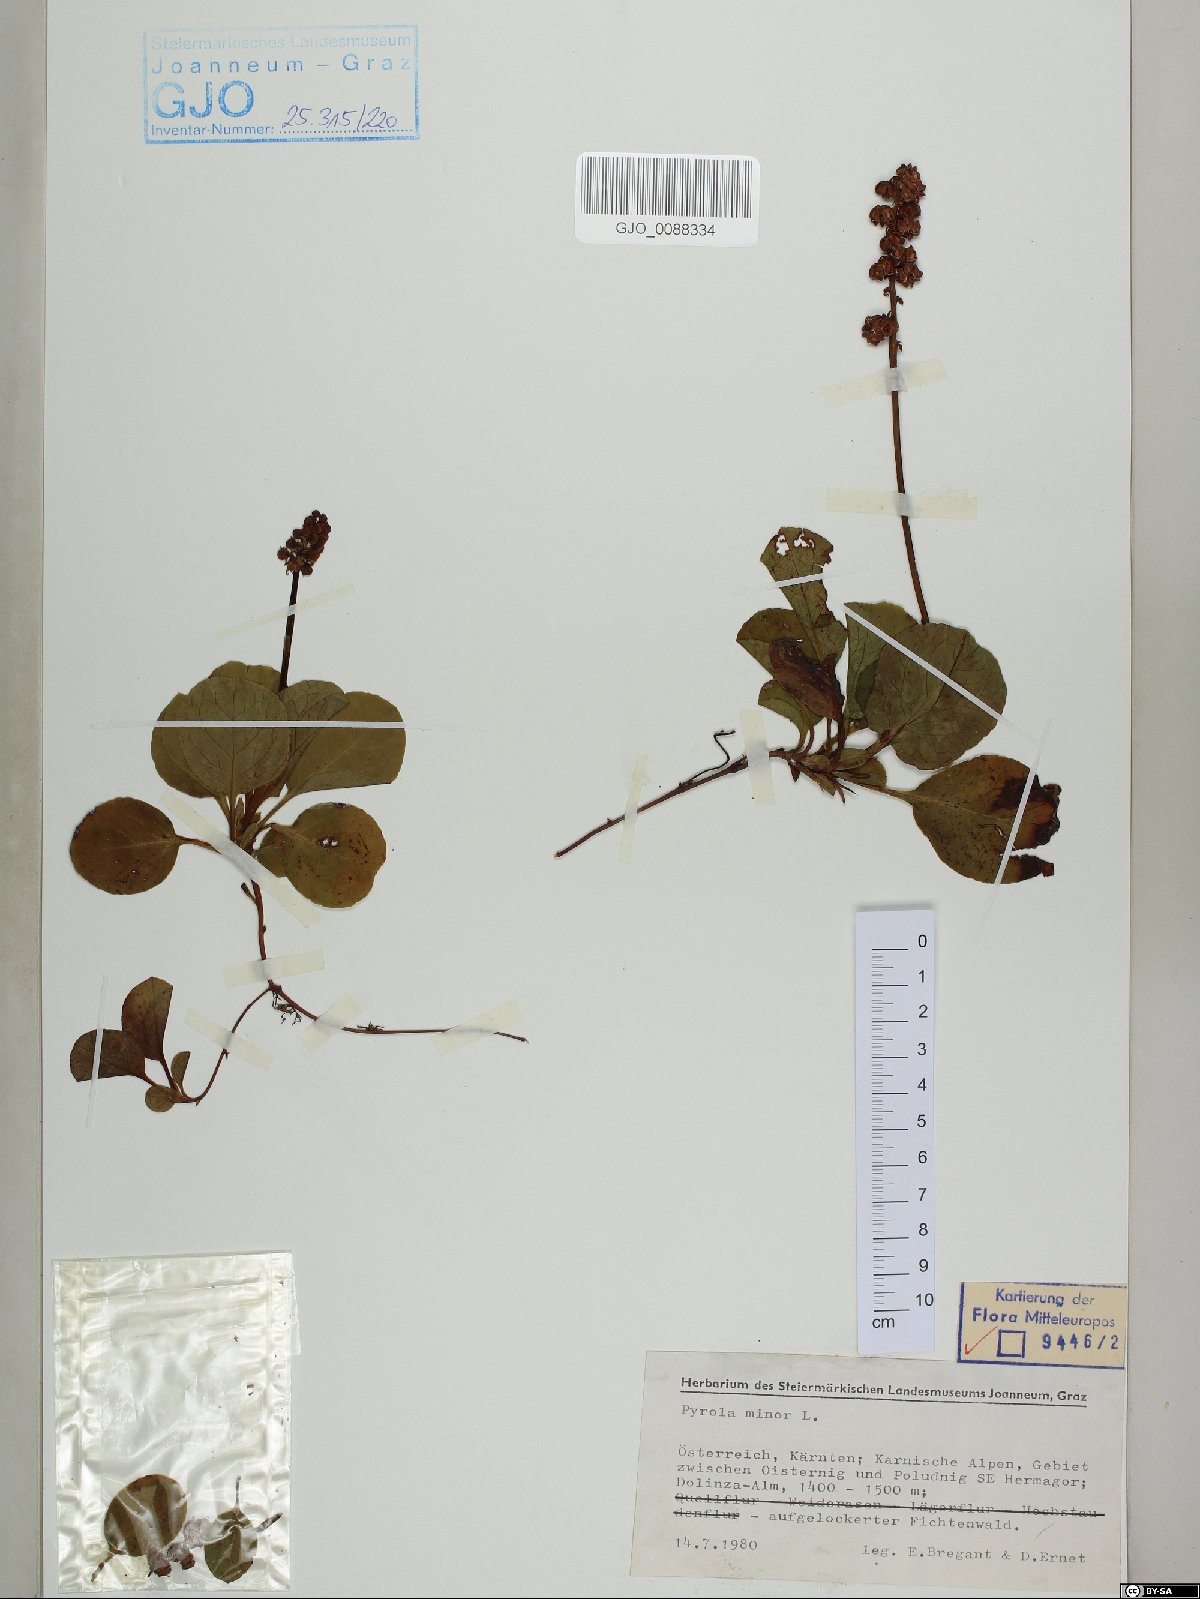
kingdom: Plantae
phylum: Tracheophyta
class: Magnoliopsida
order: Ericales
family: Ericaceae
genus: Pyrola
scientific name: Pyrola minor
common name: Common wintergreen
